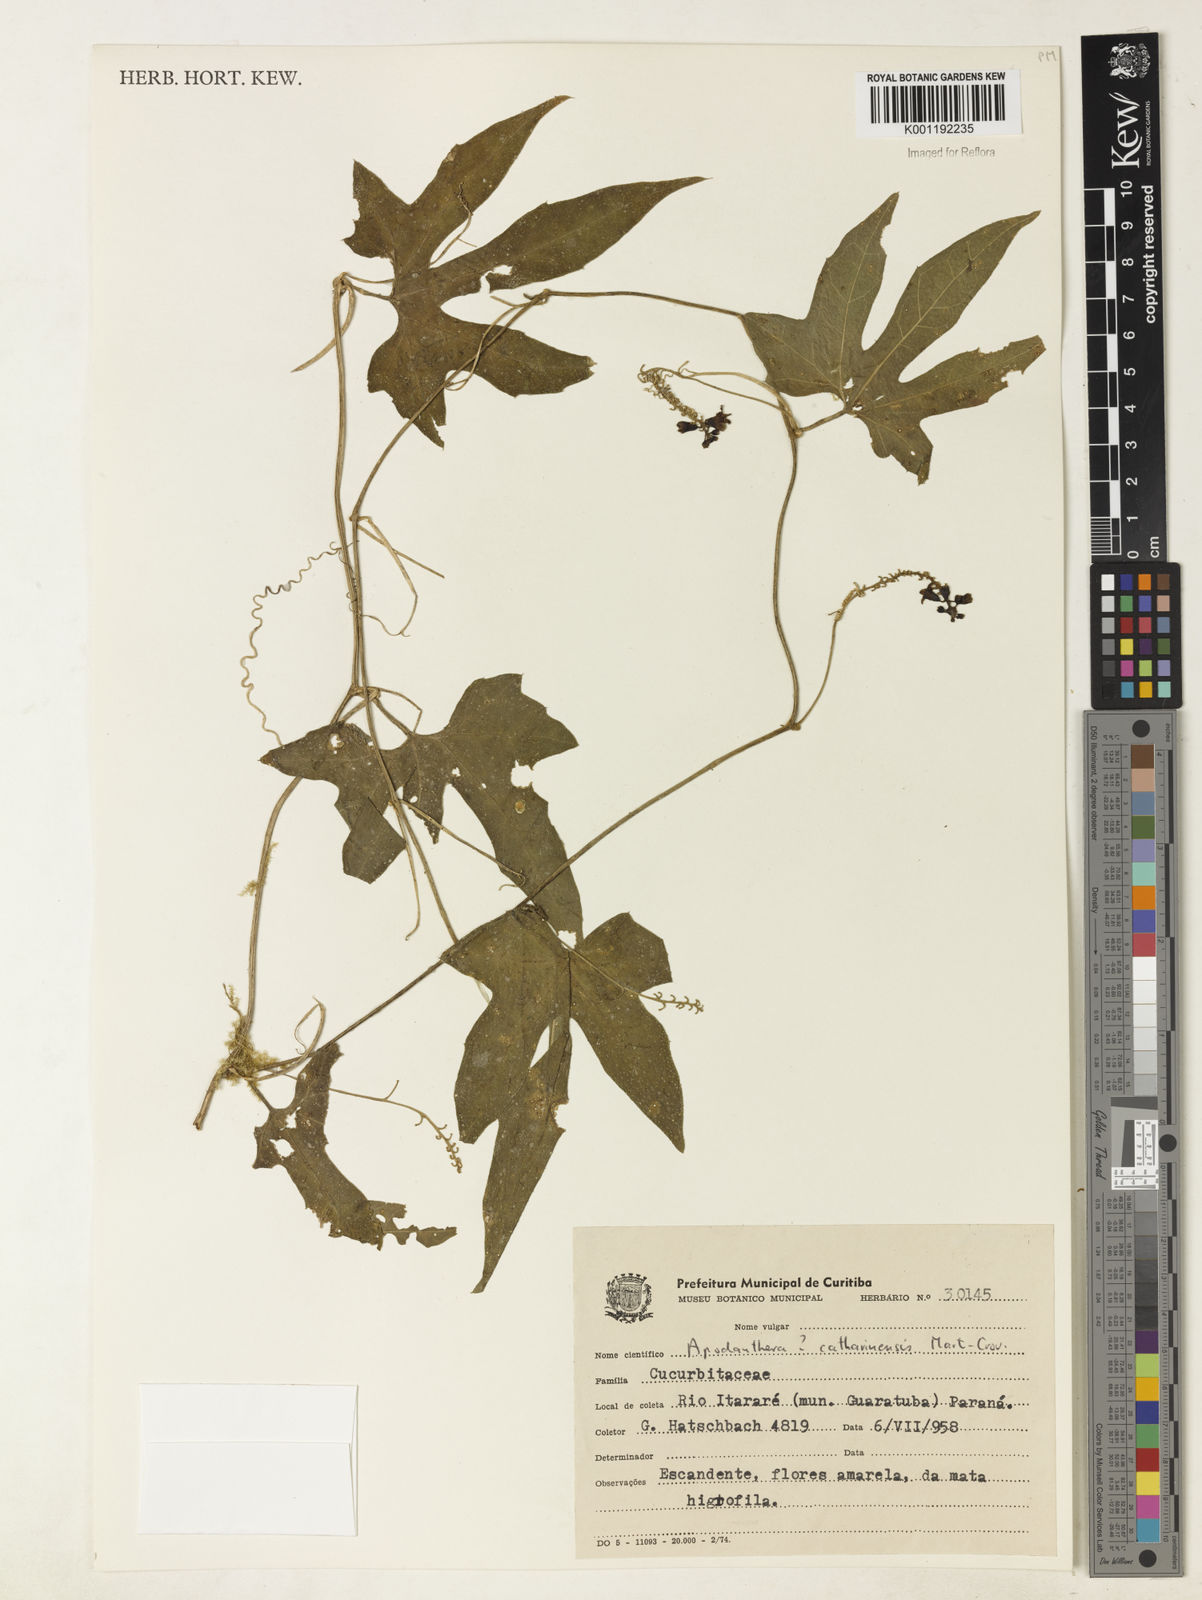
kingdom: Plantae
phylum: Tracheophyta
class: Magnoliopsida
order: Cucurbitales
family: Cucurbitaceae
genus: Apodanthera
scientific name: Apodanthera catharinensis
